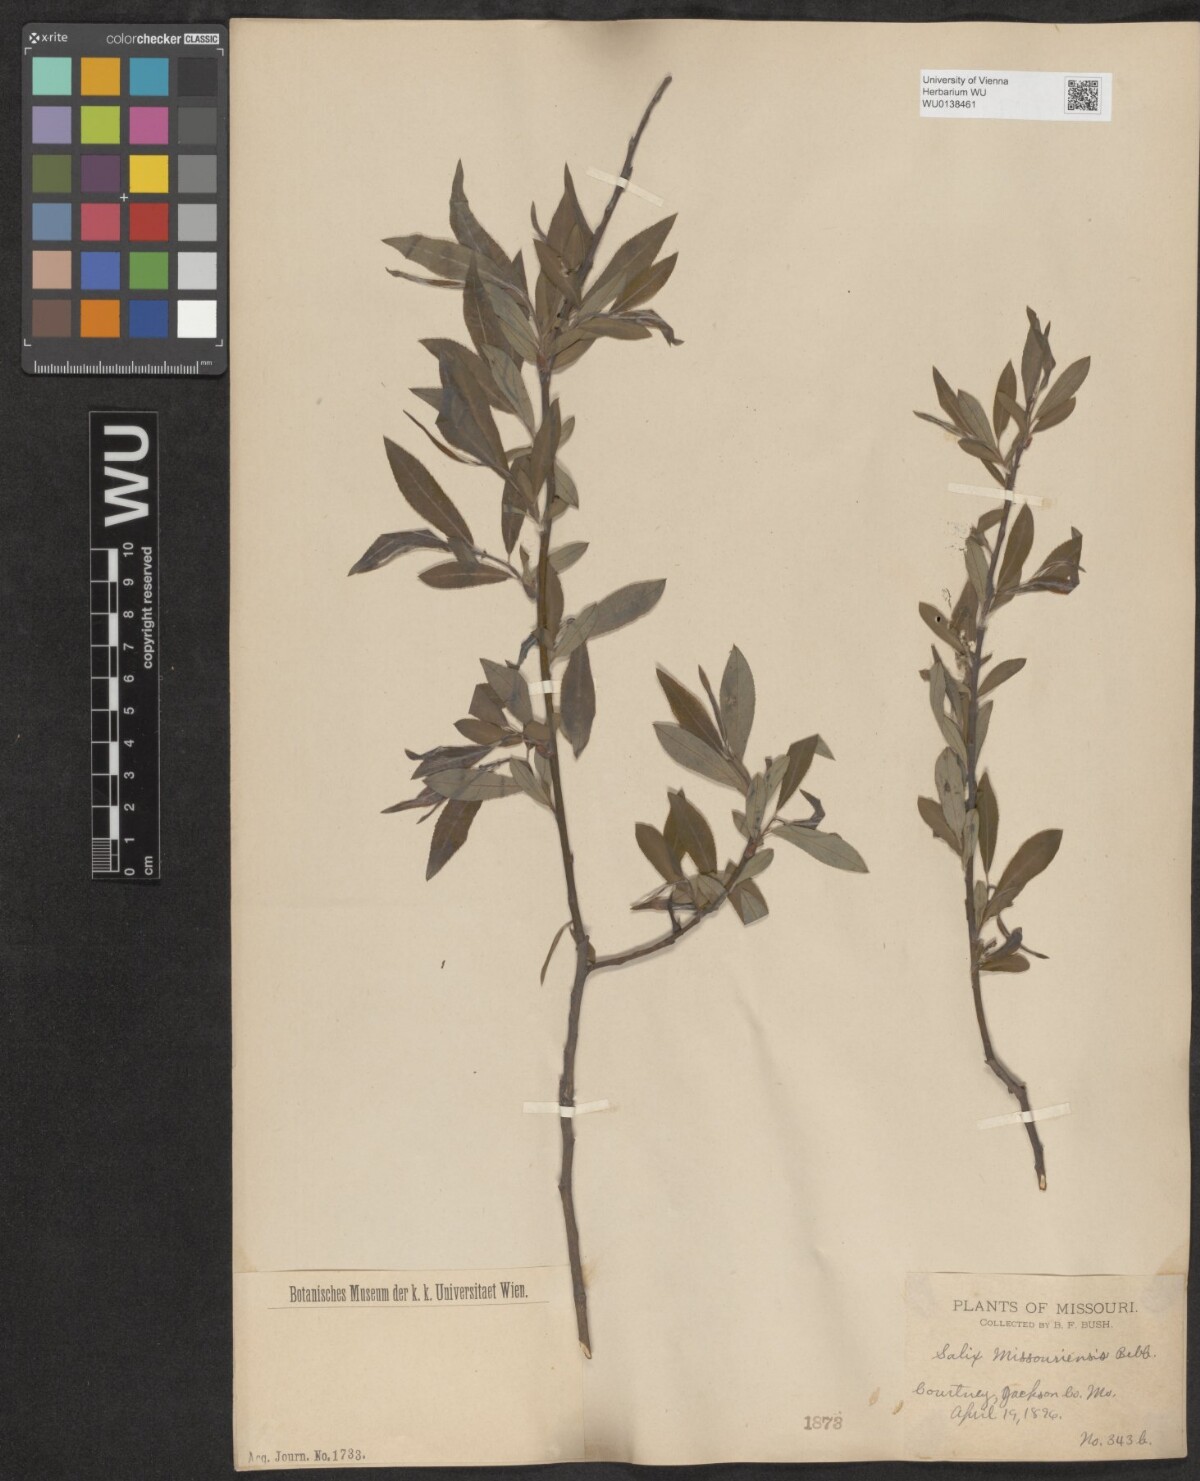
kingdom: Plantae
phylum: Tracheophyta
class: Magnoliopsida
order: Malpighiales
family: Salicaceae
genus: Salix
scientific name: Salix eriocephala
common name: Heart-leaved willow
